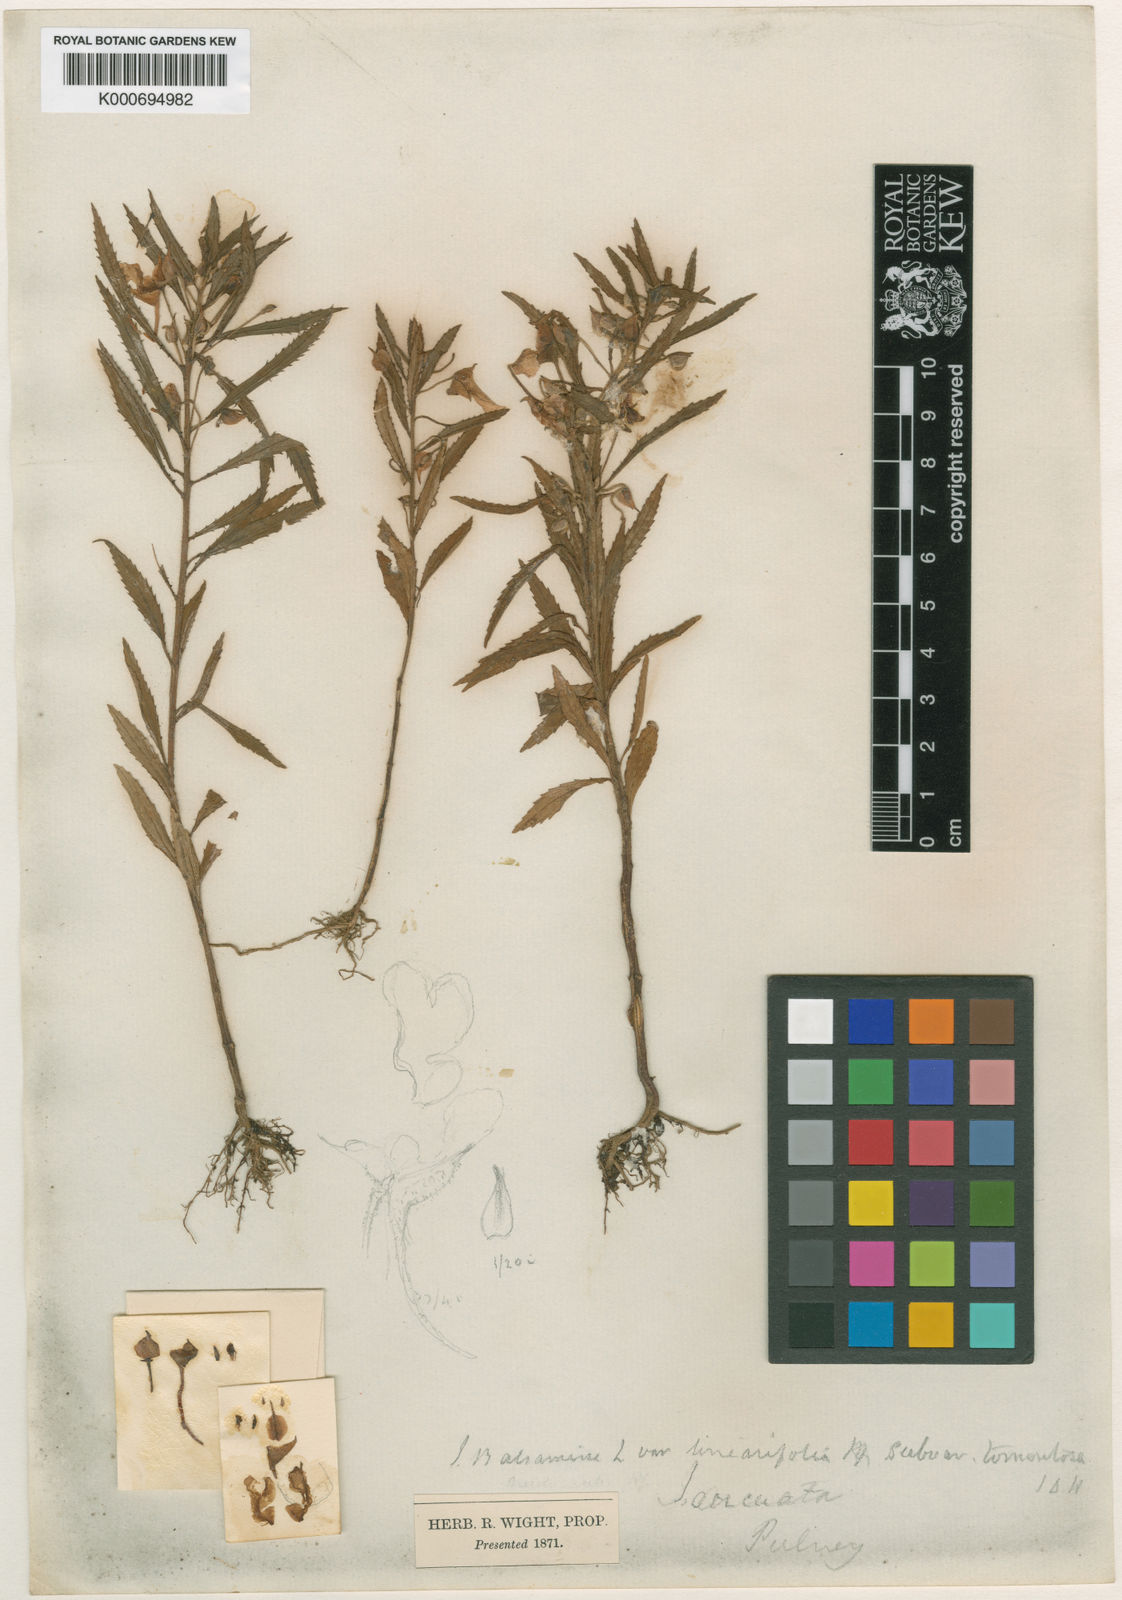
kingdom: Plantae
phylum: Tracheophyta
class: Magnoliopsida
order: Ericales
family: Balsaminaceae
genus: Impatiens
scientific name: Impatiens balsamina
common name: Balsam
